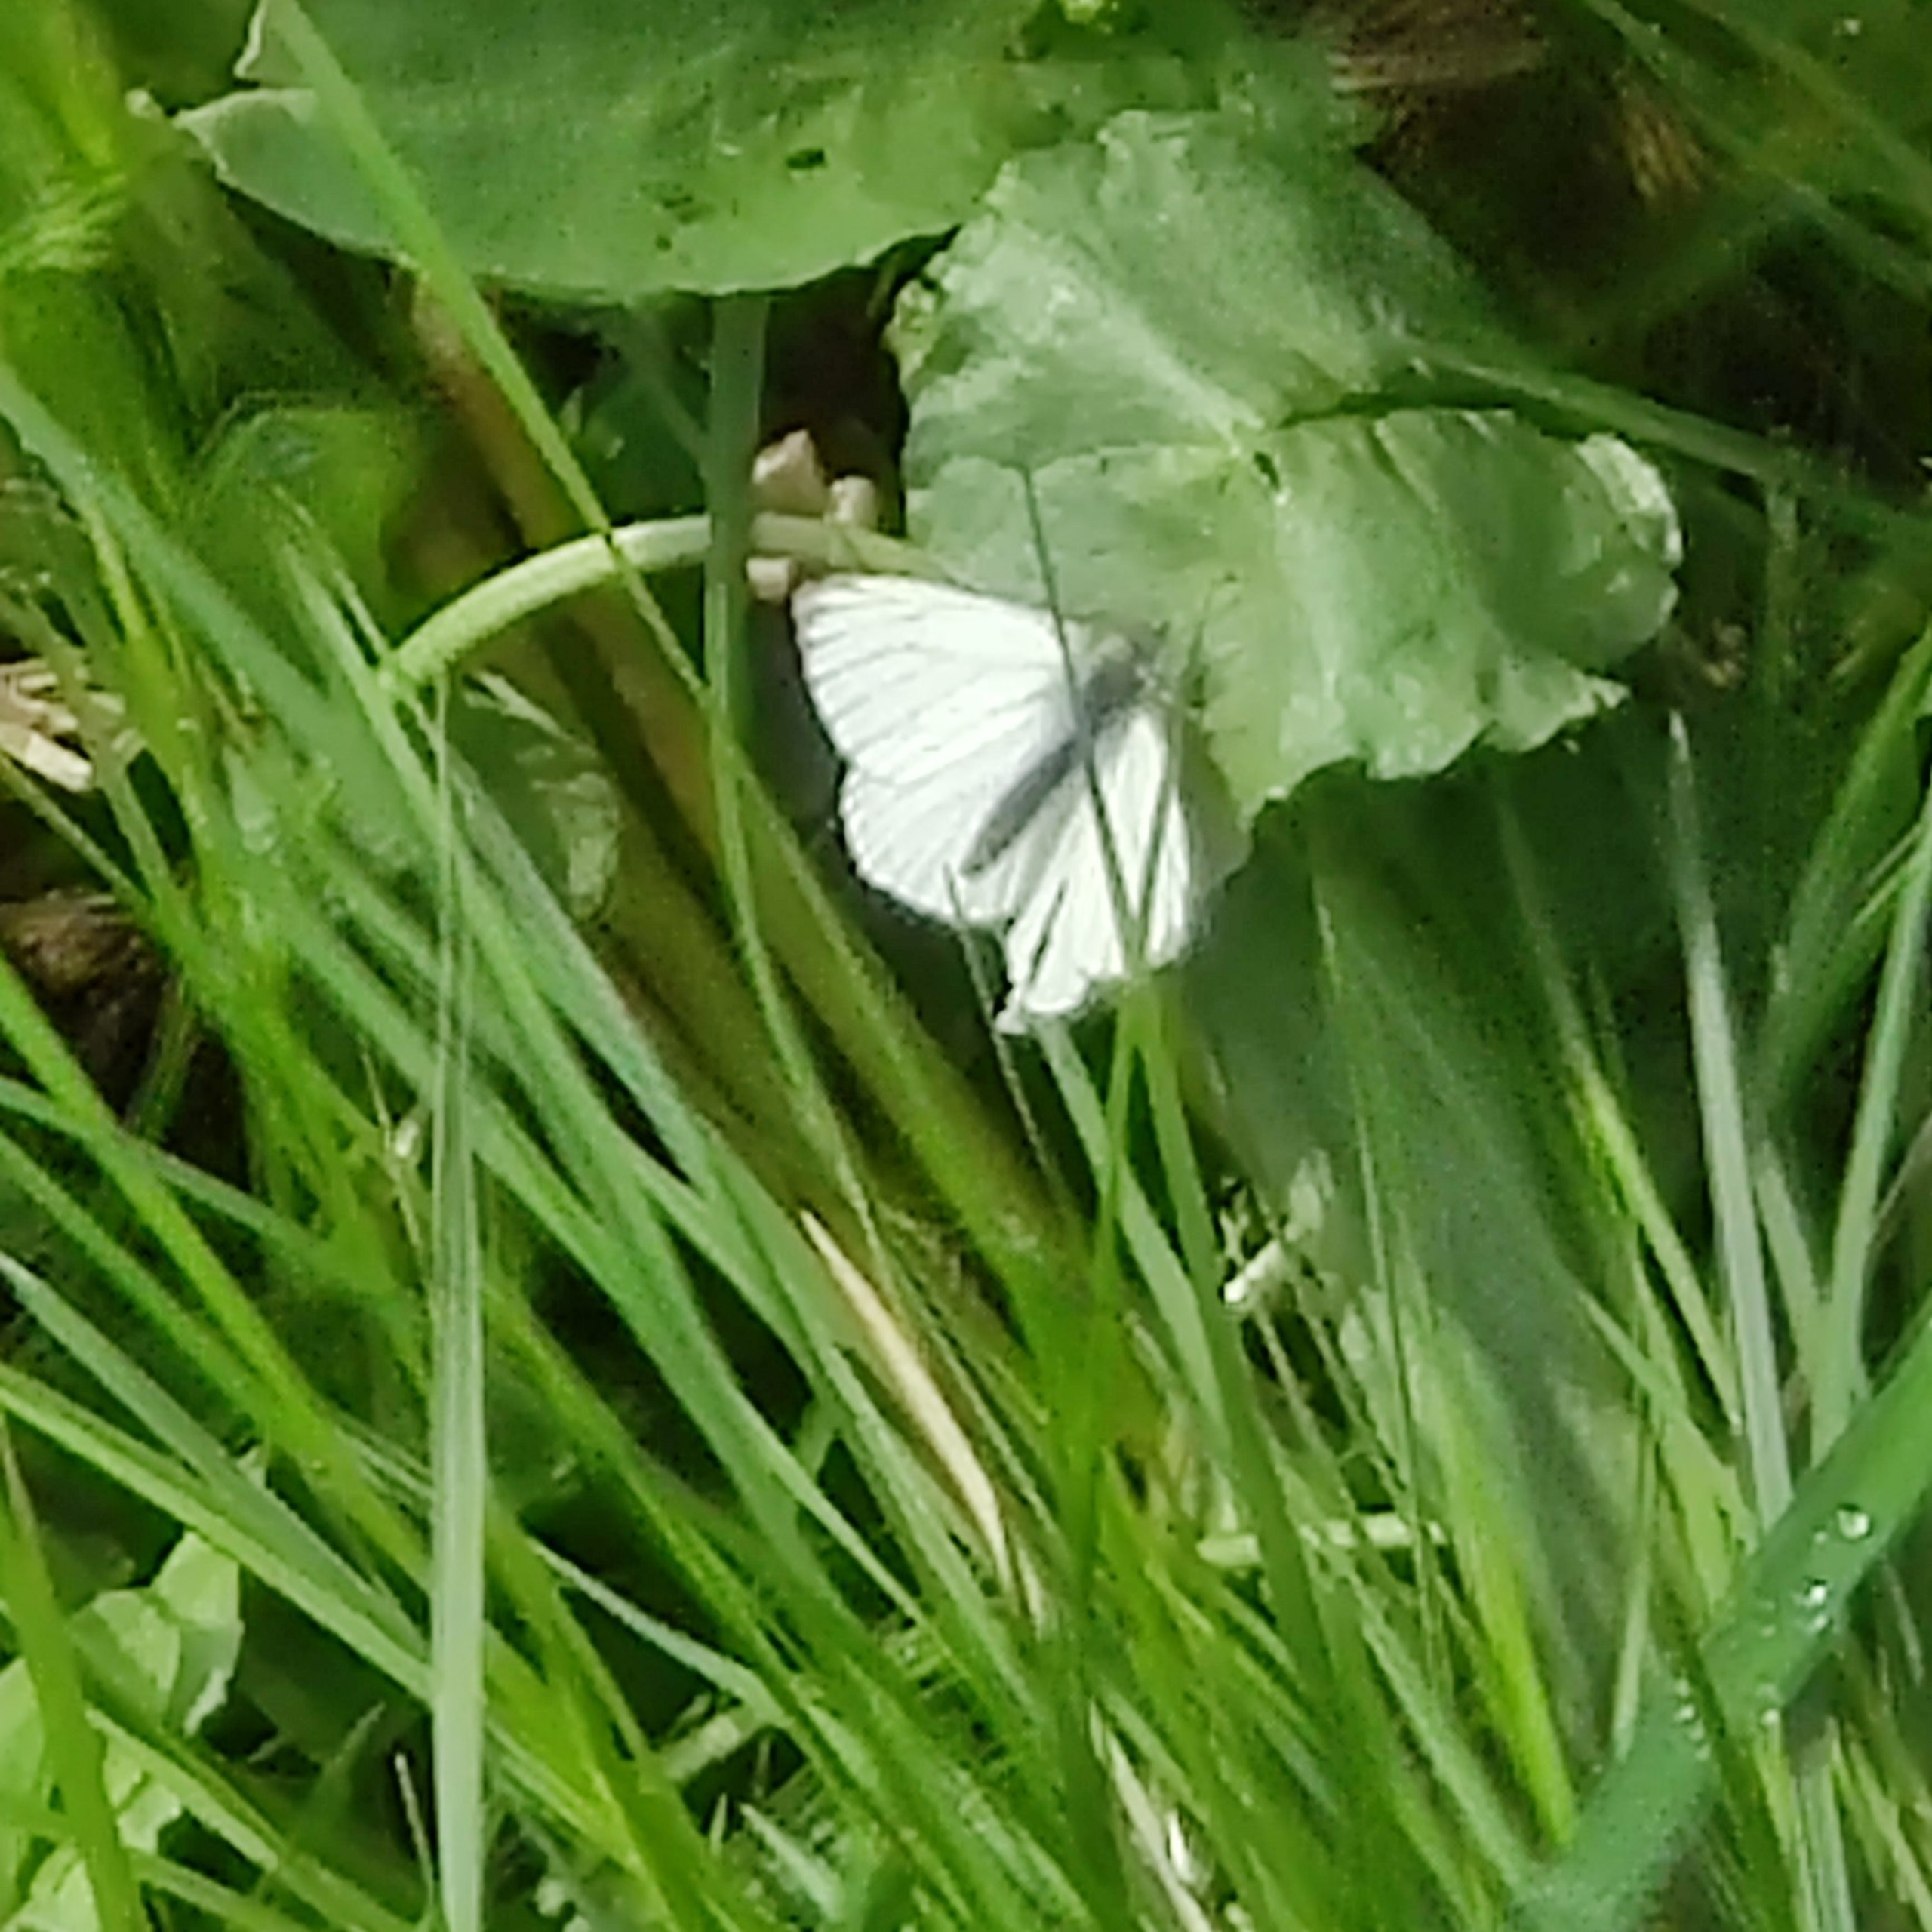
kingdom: Animalia
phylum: Arthropoda
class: Insecta
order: Lepidoptera
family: Pieridae
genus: Pieris
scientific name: Pieris napi
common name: Grønåret kålsommerfugl
